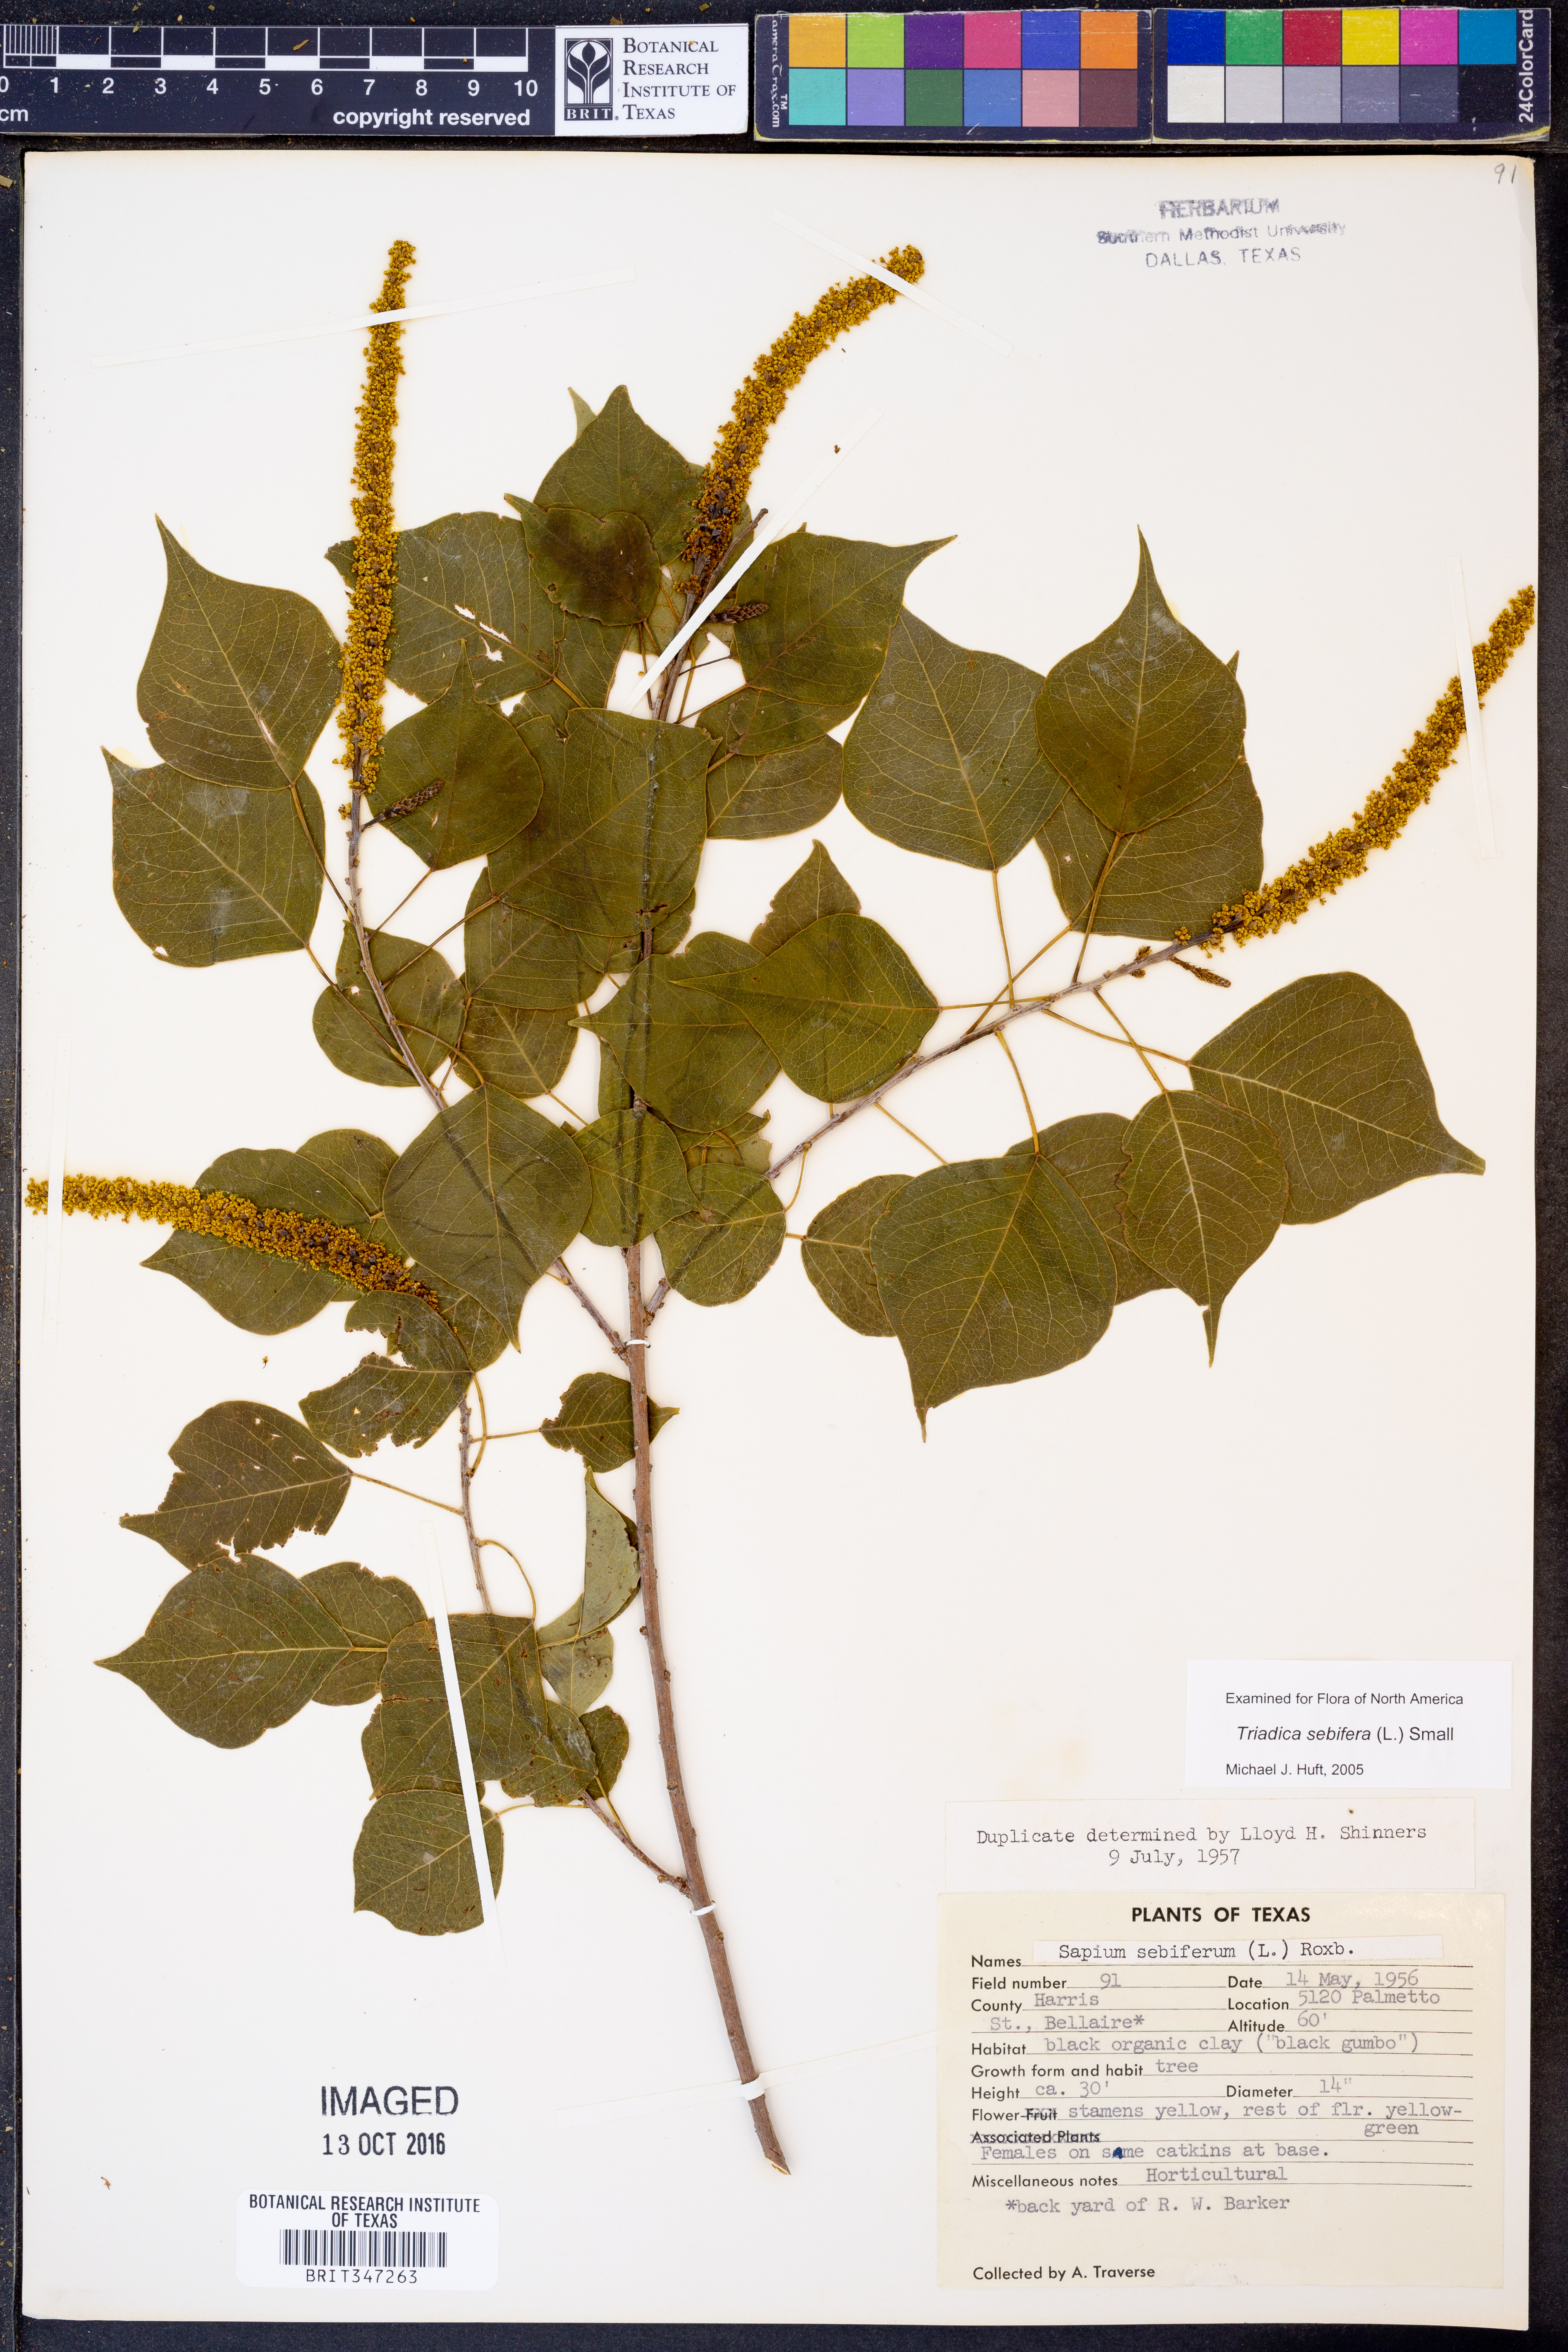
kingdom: Plantae
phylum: Tracheophyta
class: Magnoliopsida
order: Malpighiales
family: Euphorbiaceae
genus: Triadica
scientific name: Triadica sebifera
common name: Chinese tallow
